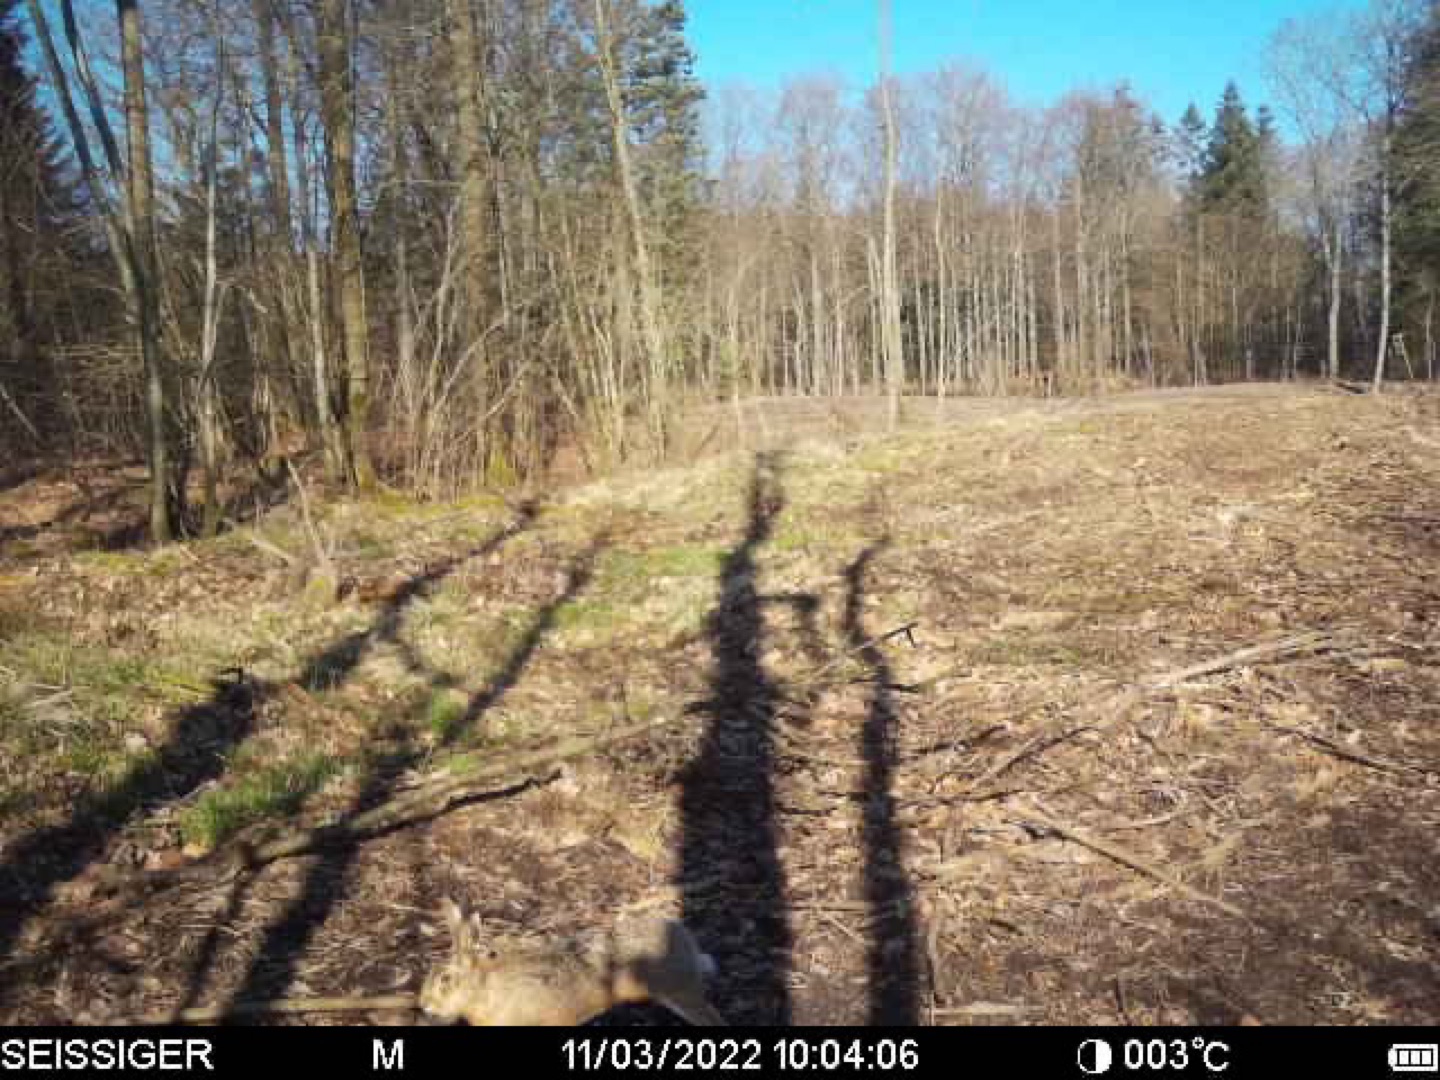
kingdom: Animalia
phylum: Chordata
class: Mammalia
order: Lagomorpha
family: Leporidae
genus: Lepus
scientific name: Lepus europaeus
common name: Hare
